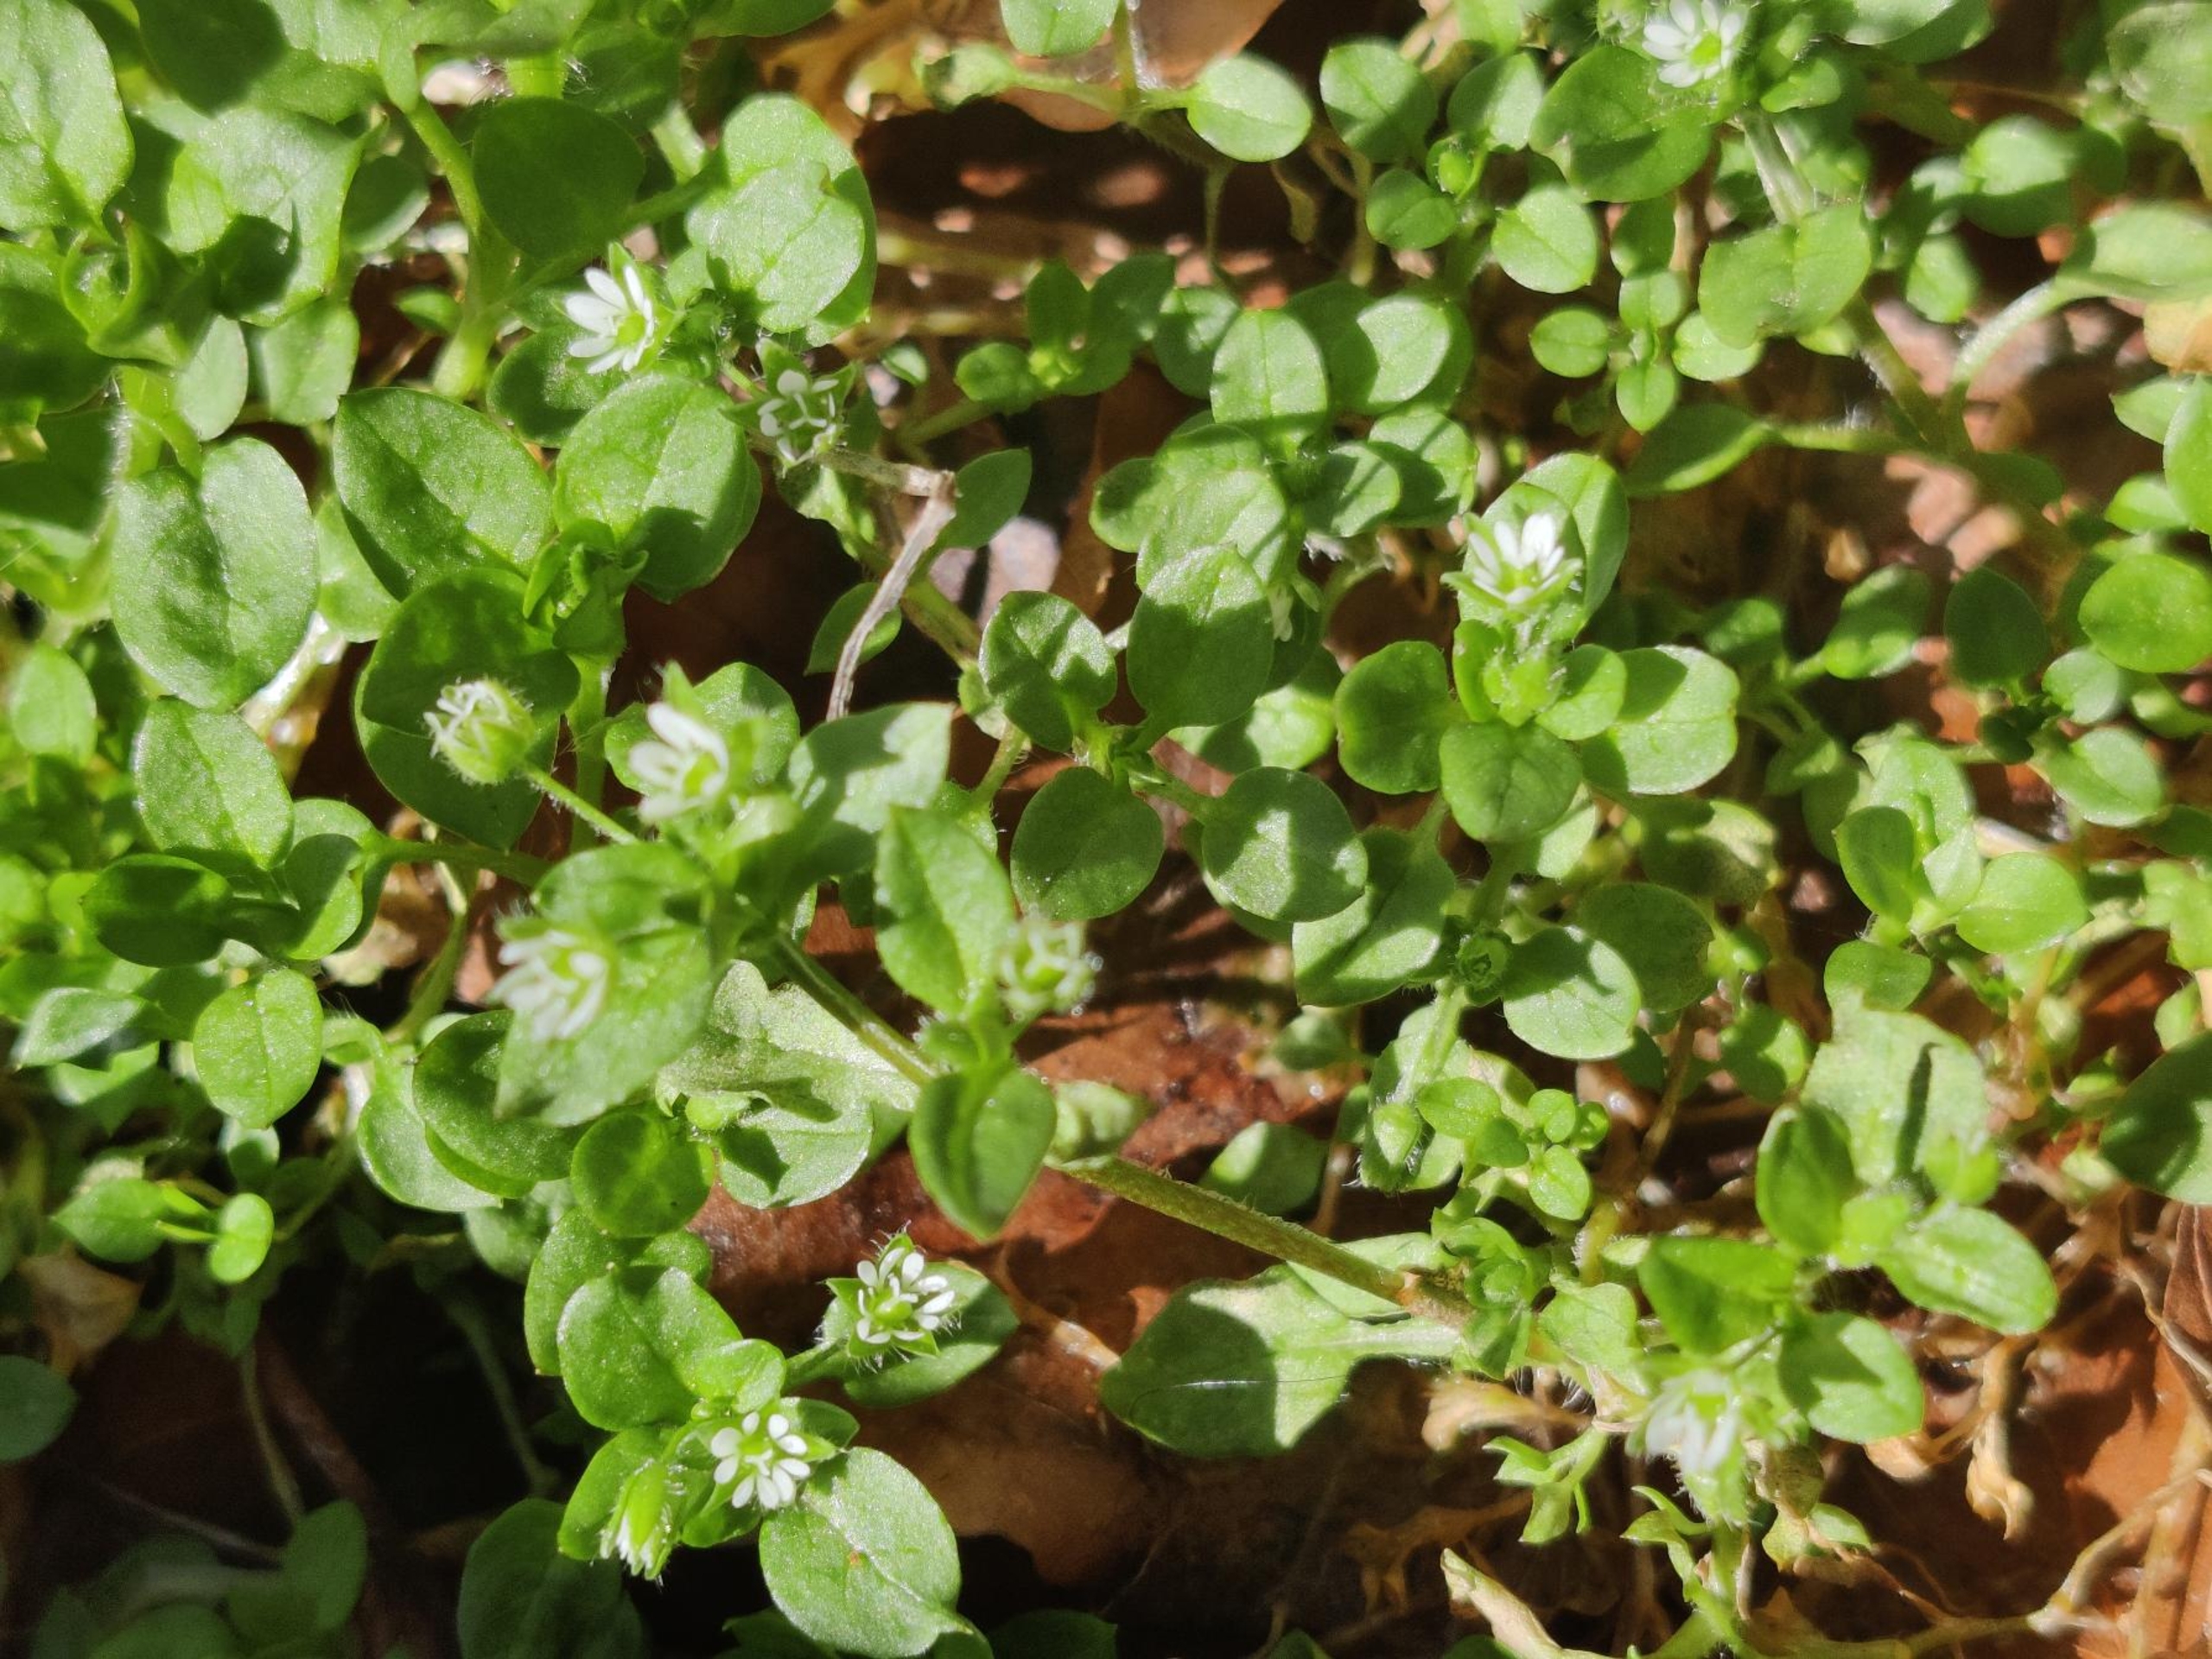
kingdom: Plantae
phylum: Tracheophyta
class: Magnoliopsida
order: Caryophyllales
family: Caryophyllaceae
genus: Stellaria
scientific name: Stellaria media
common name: Almindelig fuglegræs
